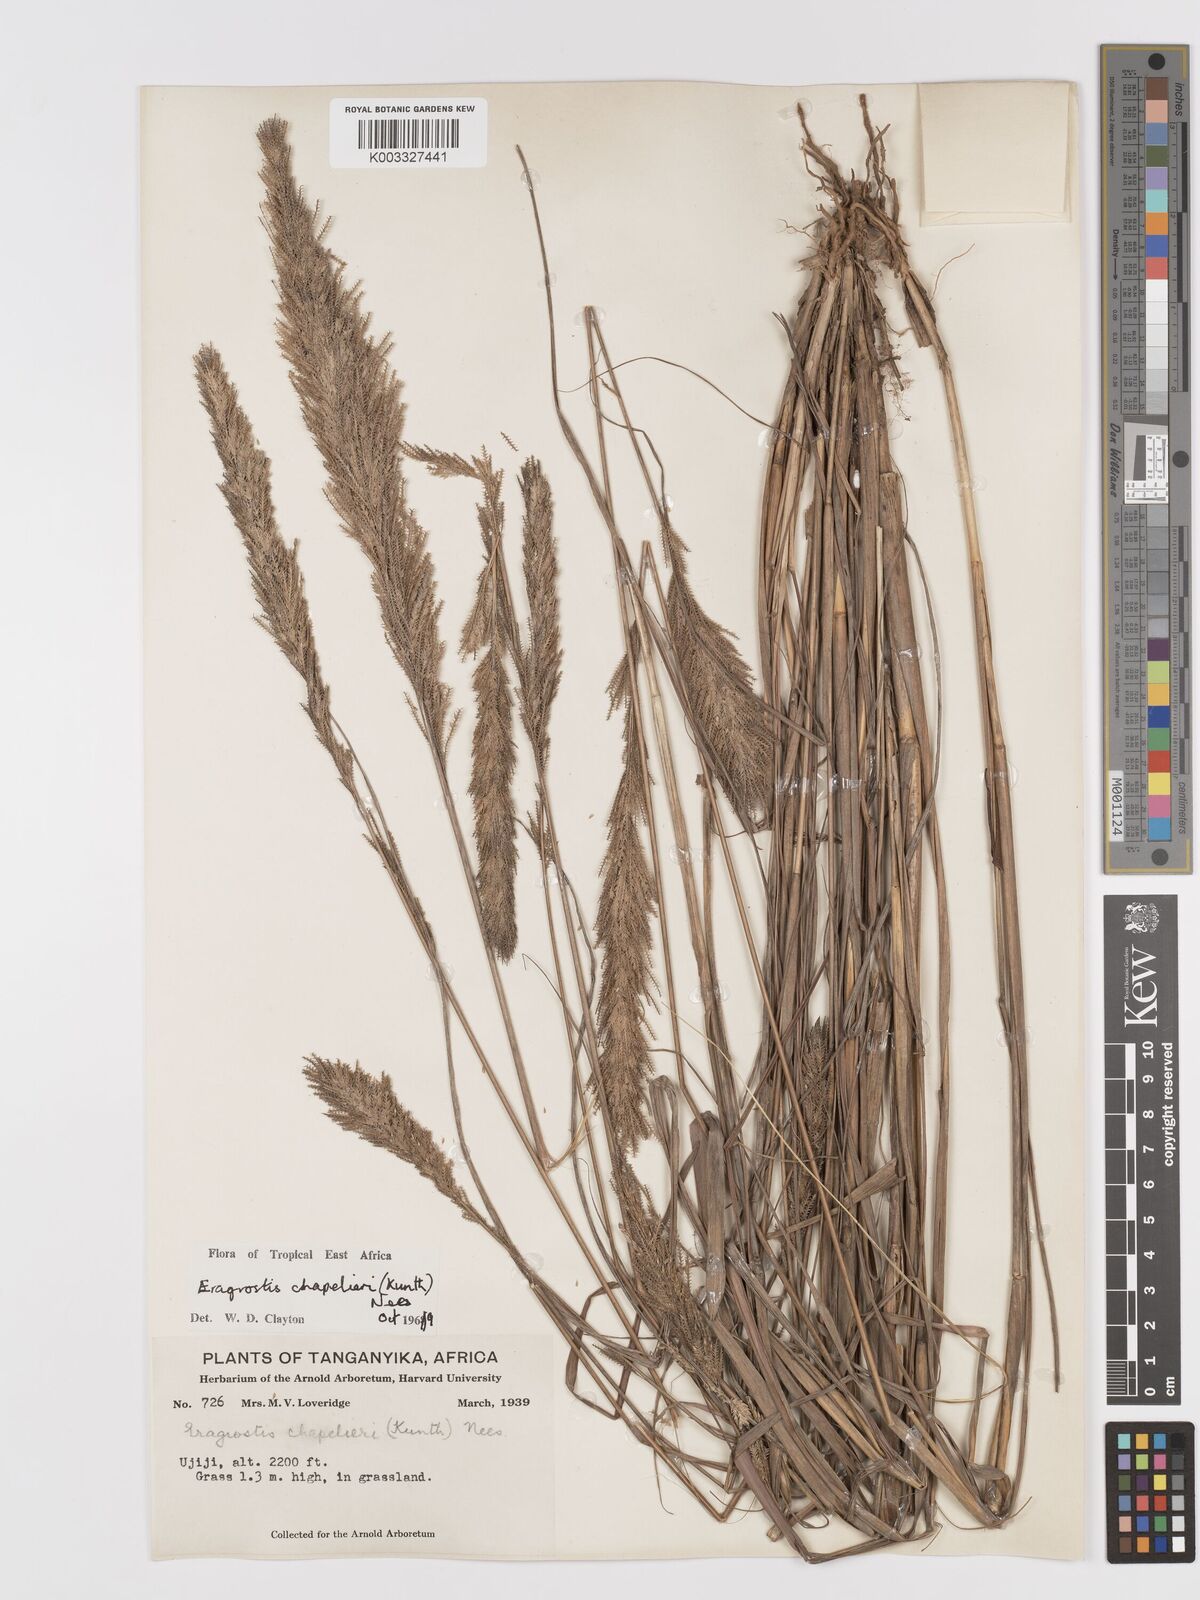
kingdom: Plantae
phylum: Tracheophyta
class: Liliopsida
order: Poales
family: Poaceae
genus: Eragrostis
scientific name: Eragrostis chapelieri
